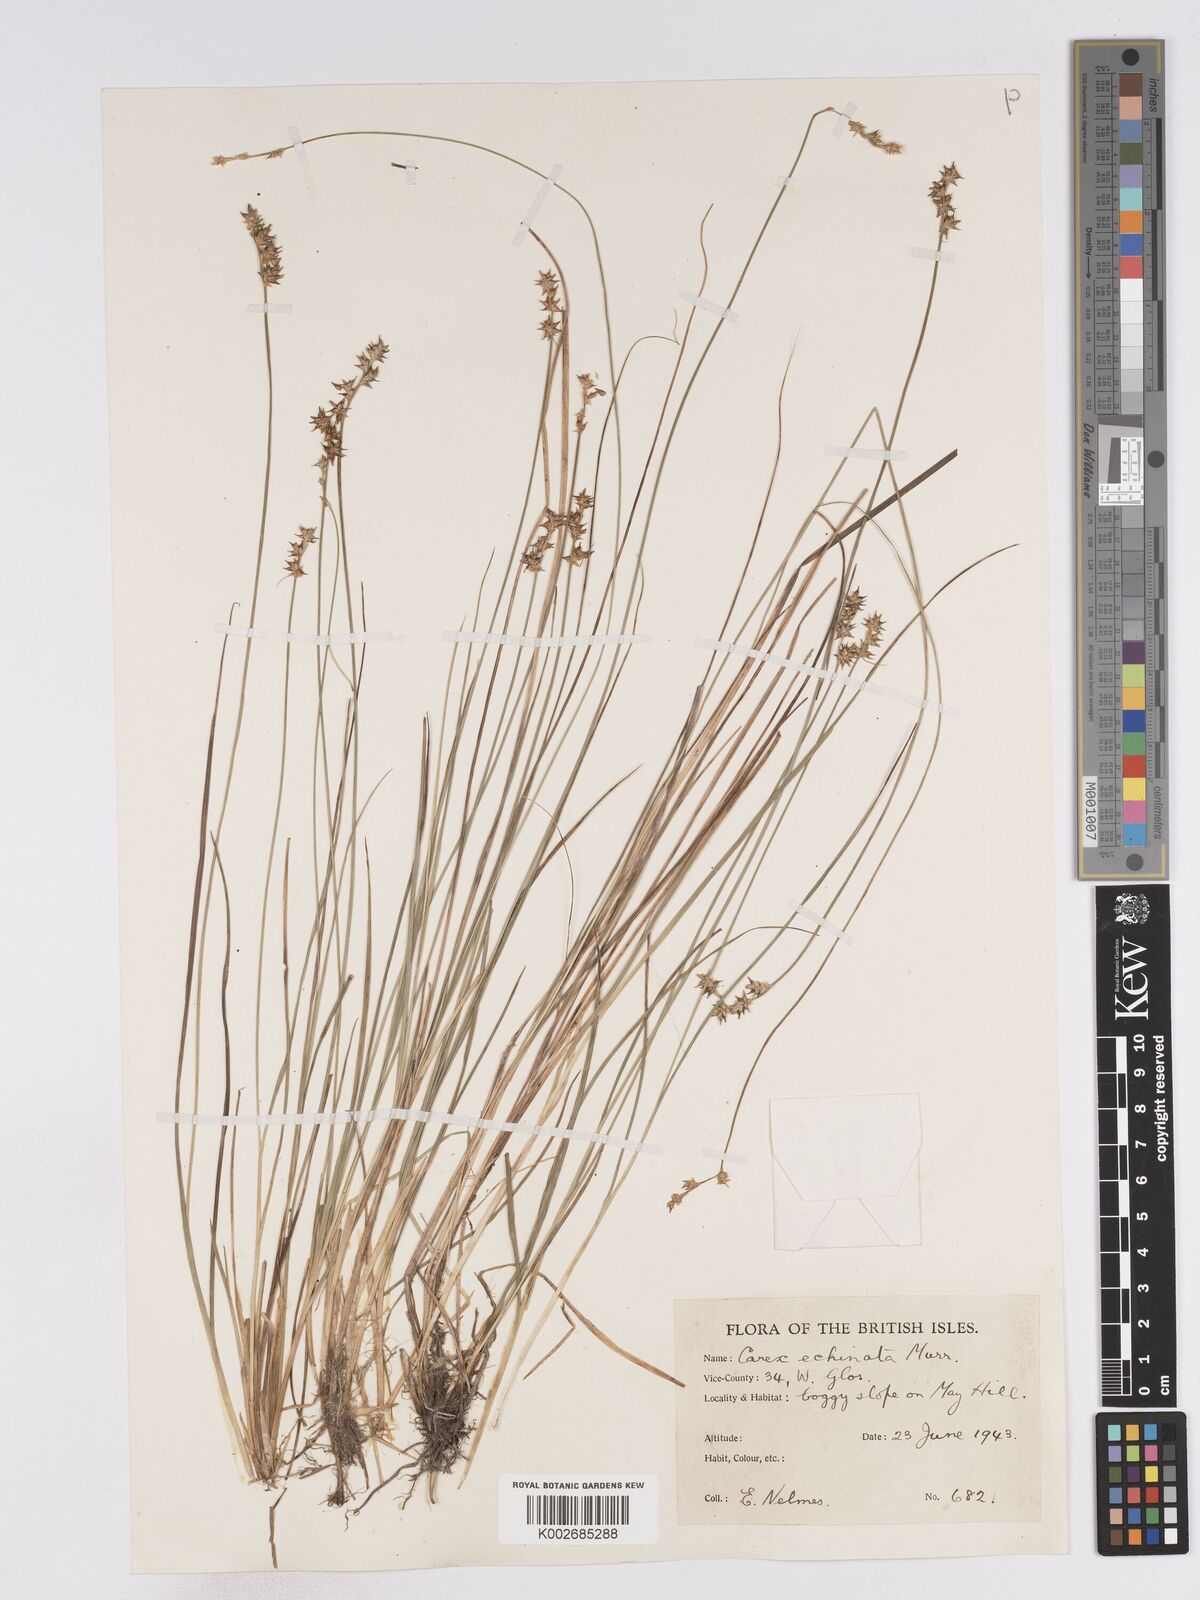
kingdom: Plantae
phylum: Tracheophyta
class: Liliopsida
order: Poales
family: Cyperaceae
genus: Carex
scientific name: Carex echinata
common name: Star sedge
